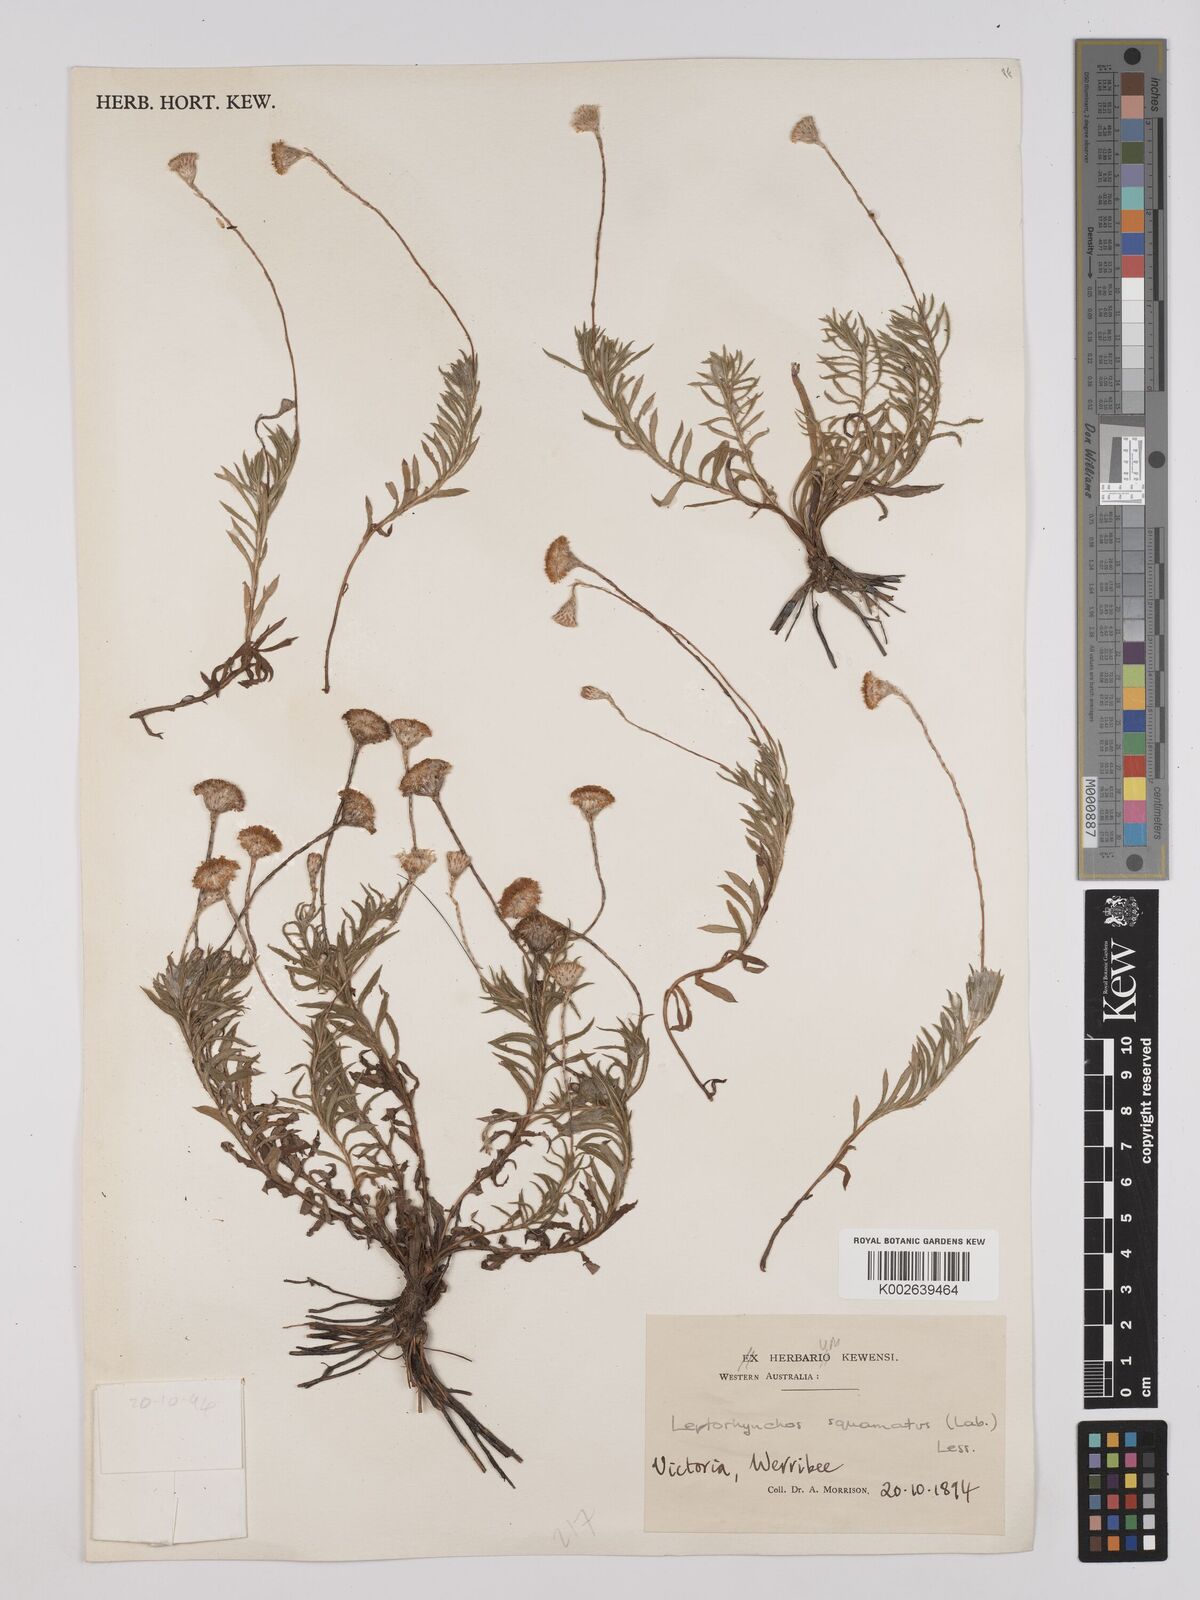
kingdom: Plantae
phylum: Tracheophyta
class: Magnoliopsida
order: Asterales
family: Asteraceae
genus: Leptorhynchos
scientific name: Leptorhynchos squamatus
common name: Scaly-buttons
